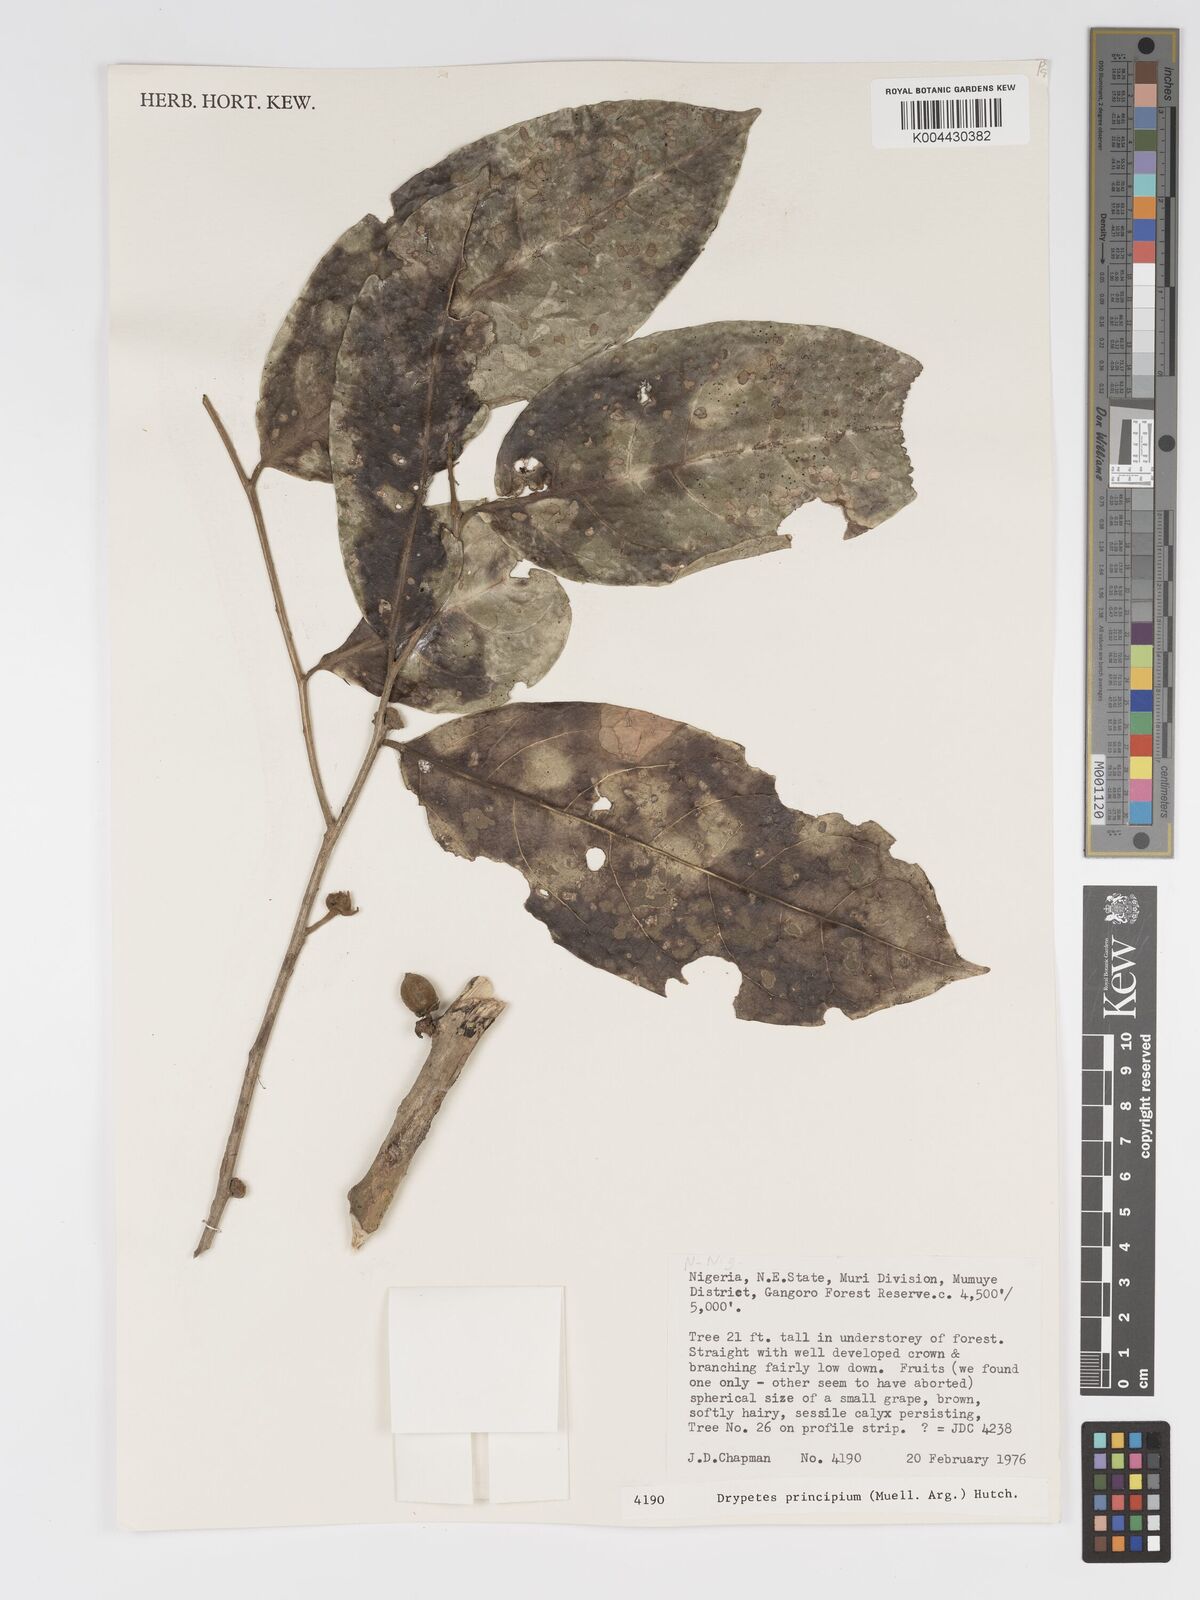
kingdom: Plantae
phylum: Tracheophyta
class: Magnoliopsida
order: Malpighiales
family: Putranjivaceae
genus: Drypetes
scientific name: Drypetes principum
